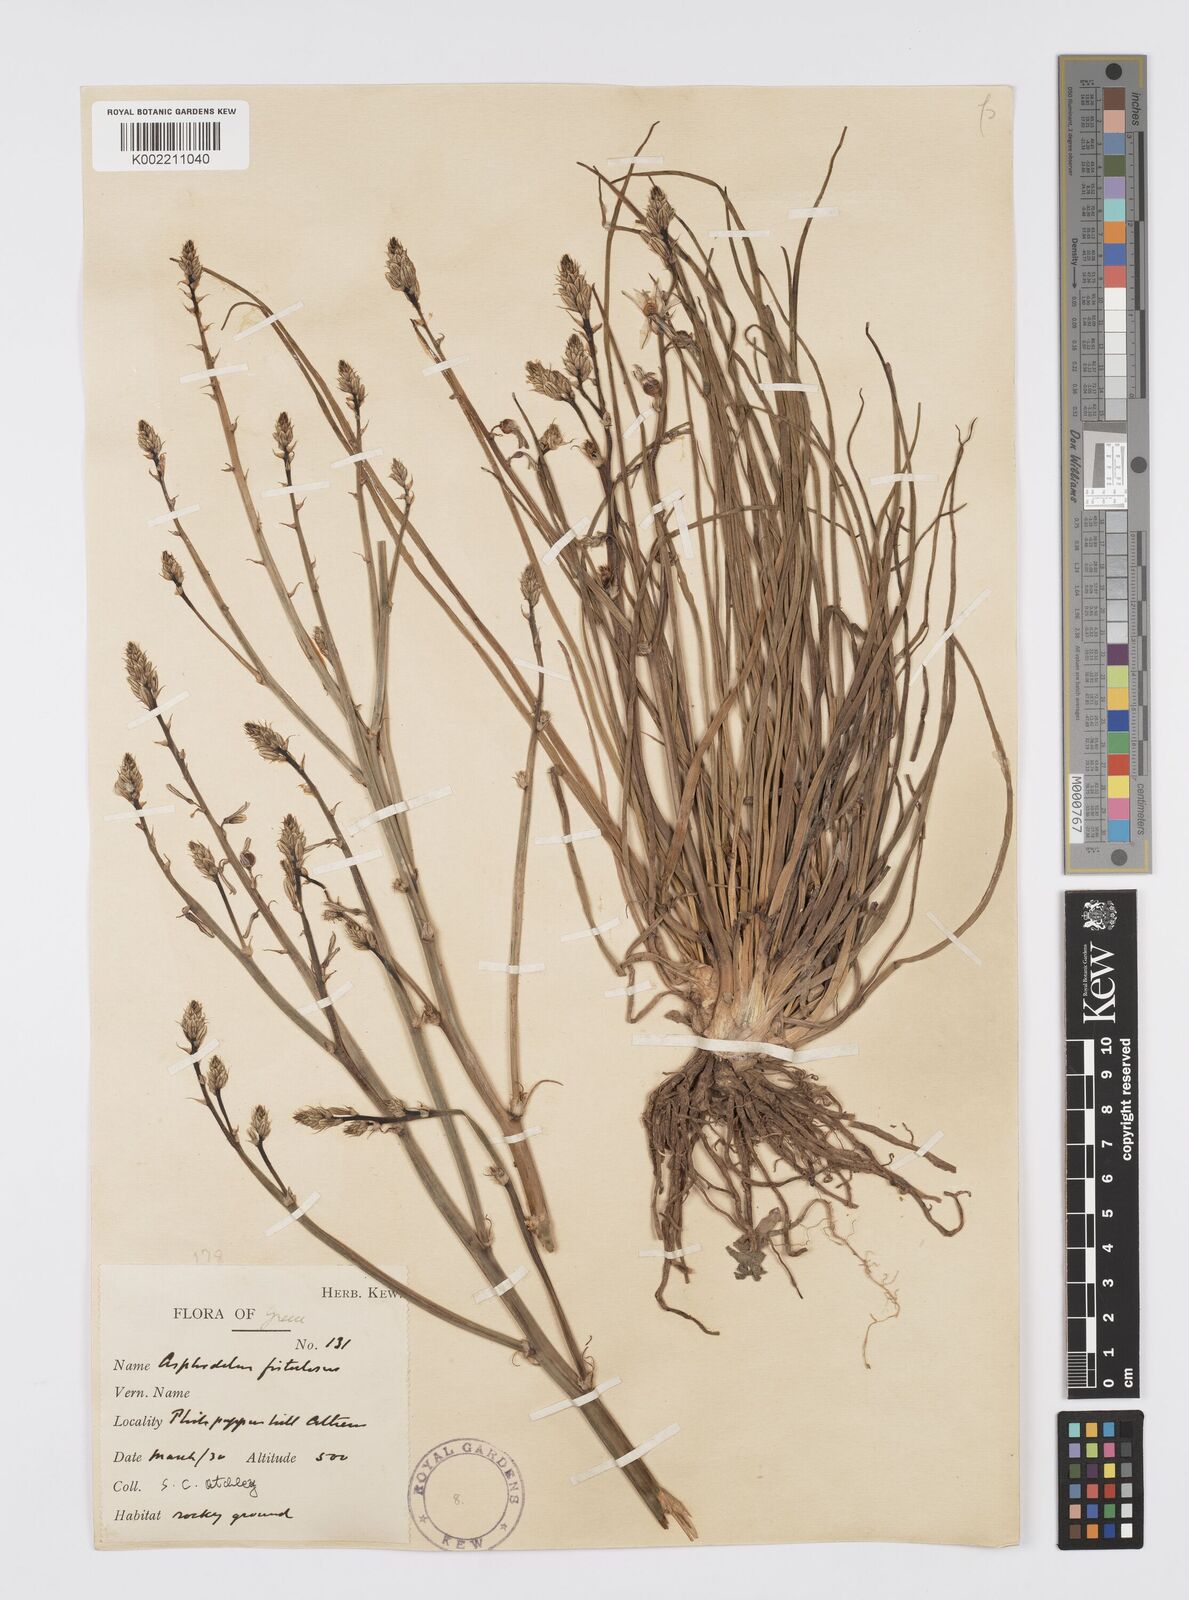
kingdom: Plantae
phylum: Tracheophyta
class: Liliopsida
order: Asparagales
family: Asphodelaceae
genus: Asphodelus
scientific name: Asphodelus fistulosus
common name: Onionweed
